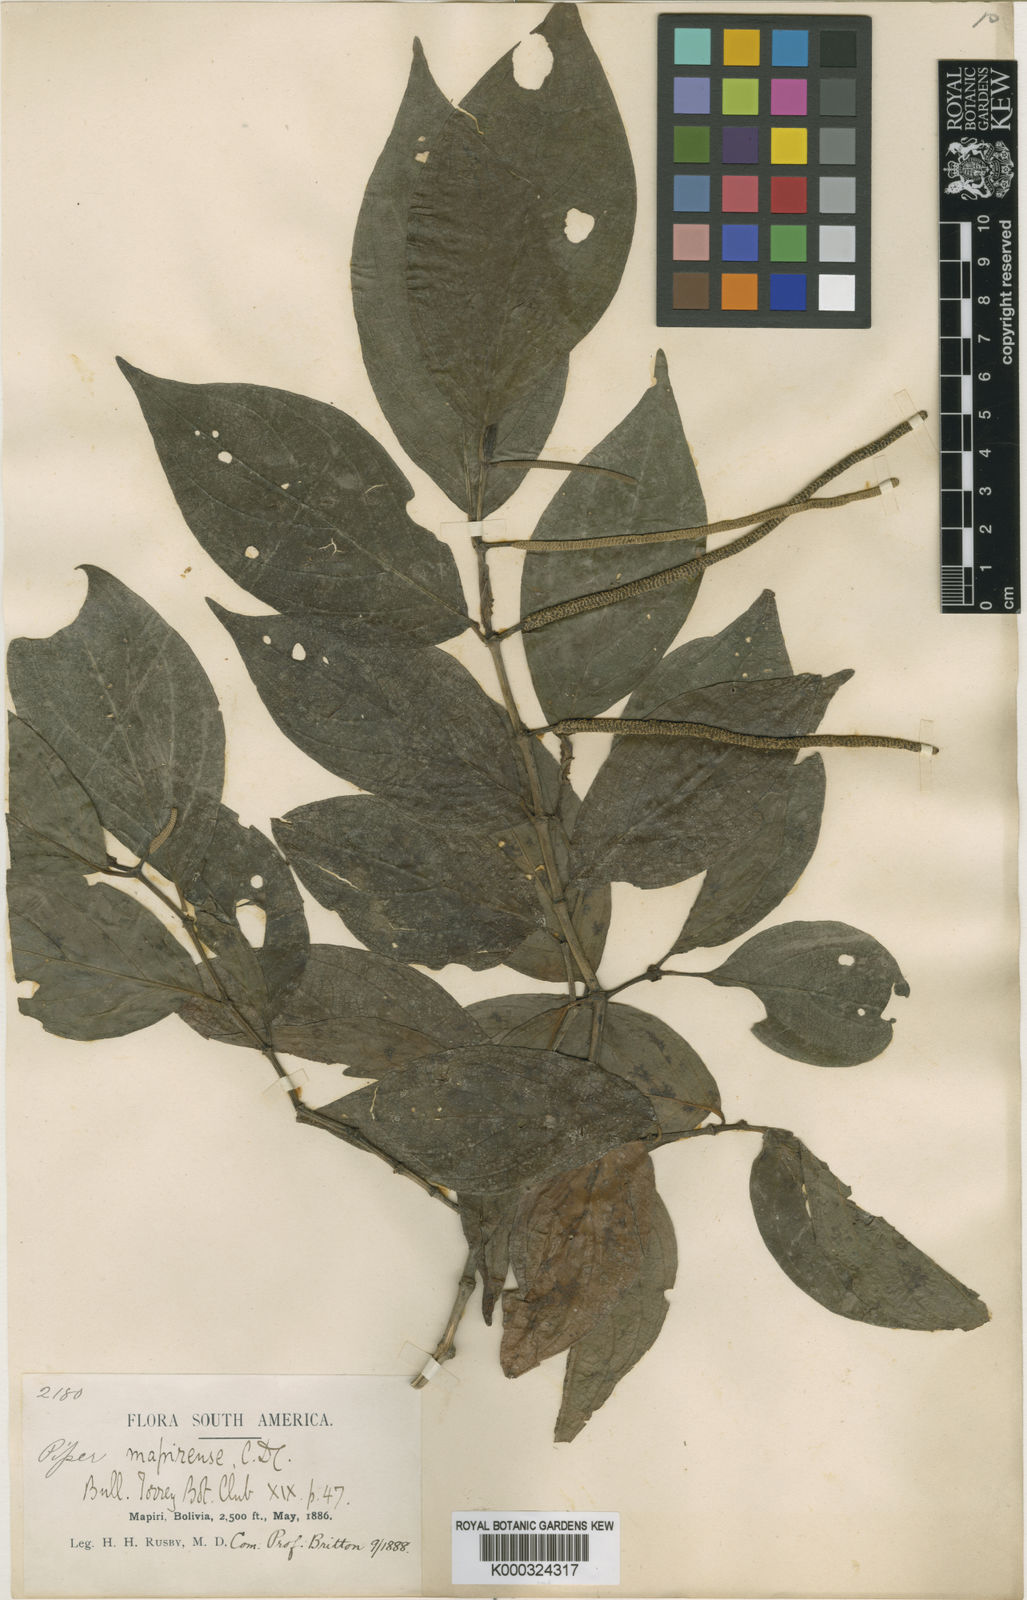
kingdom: Plantae
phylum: Tracheophyta
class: Magnoliopsida
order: Piperales
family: Piperaceae
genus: Piper
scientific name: Piper mapirense
